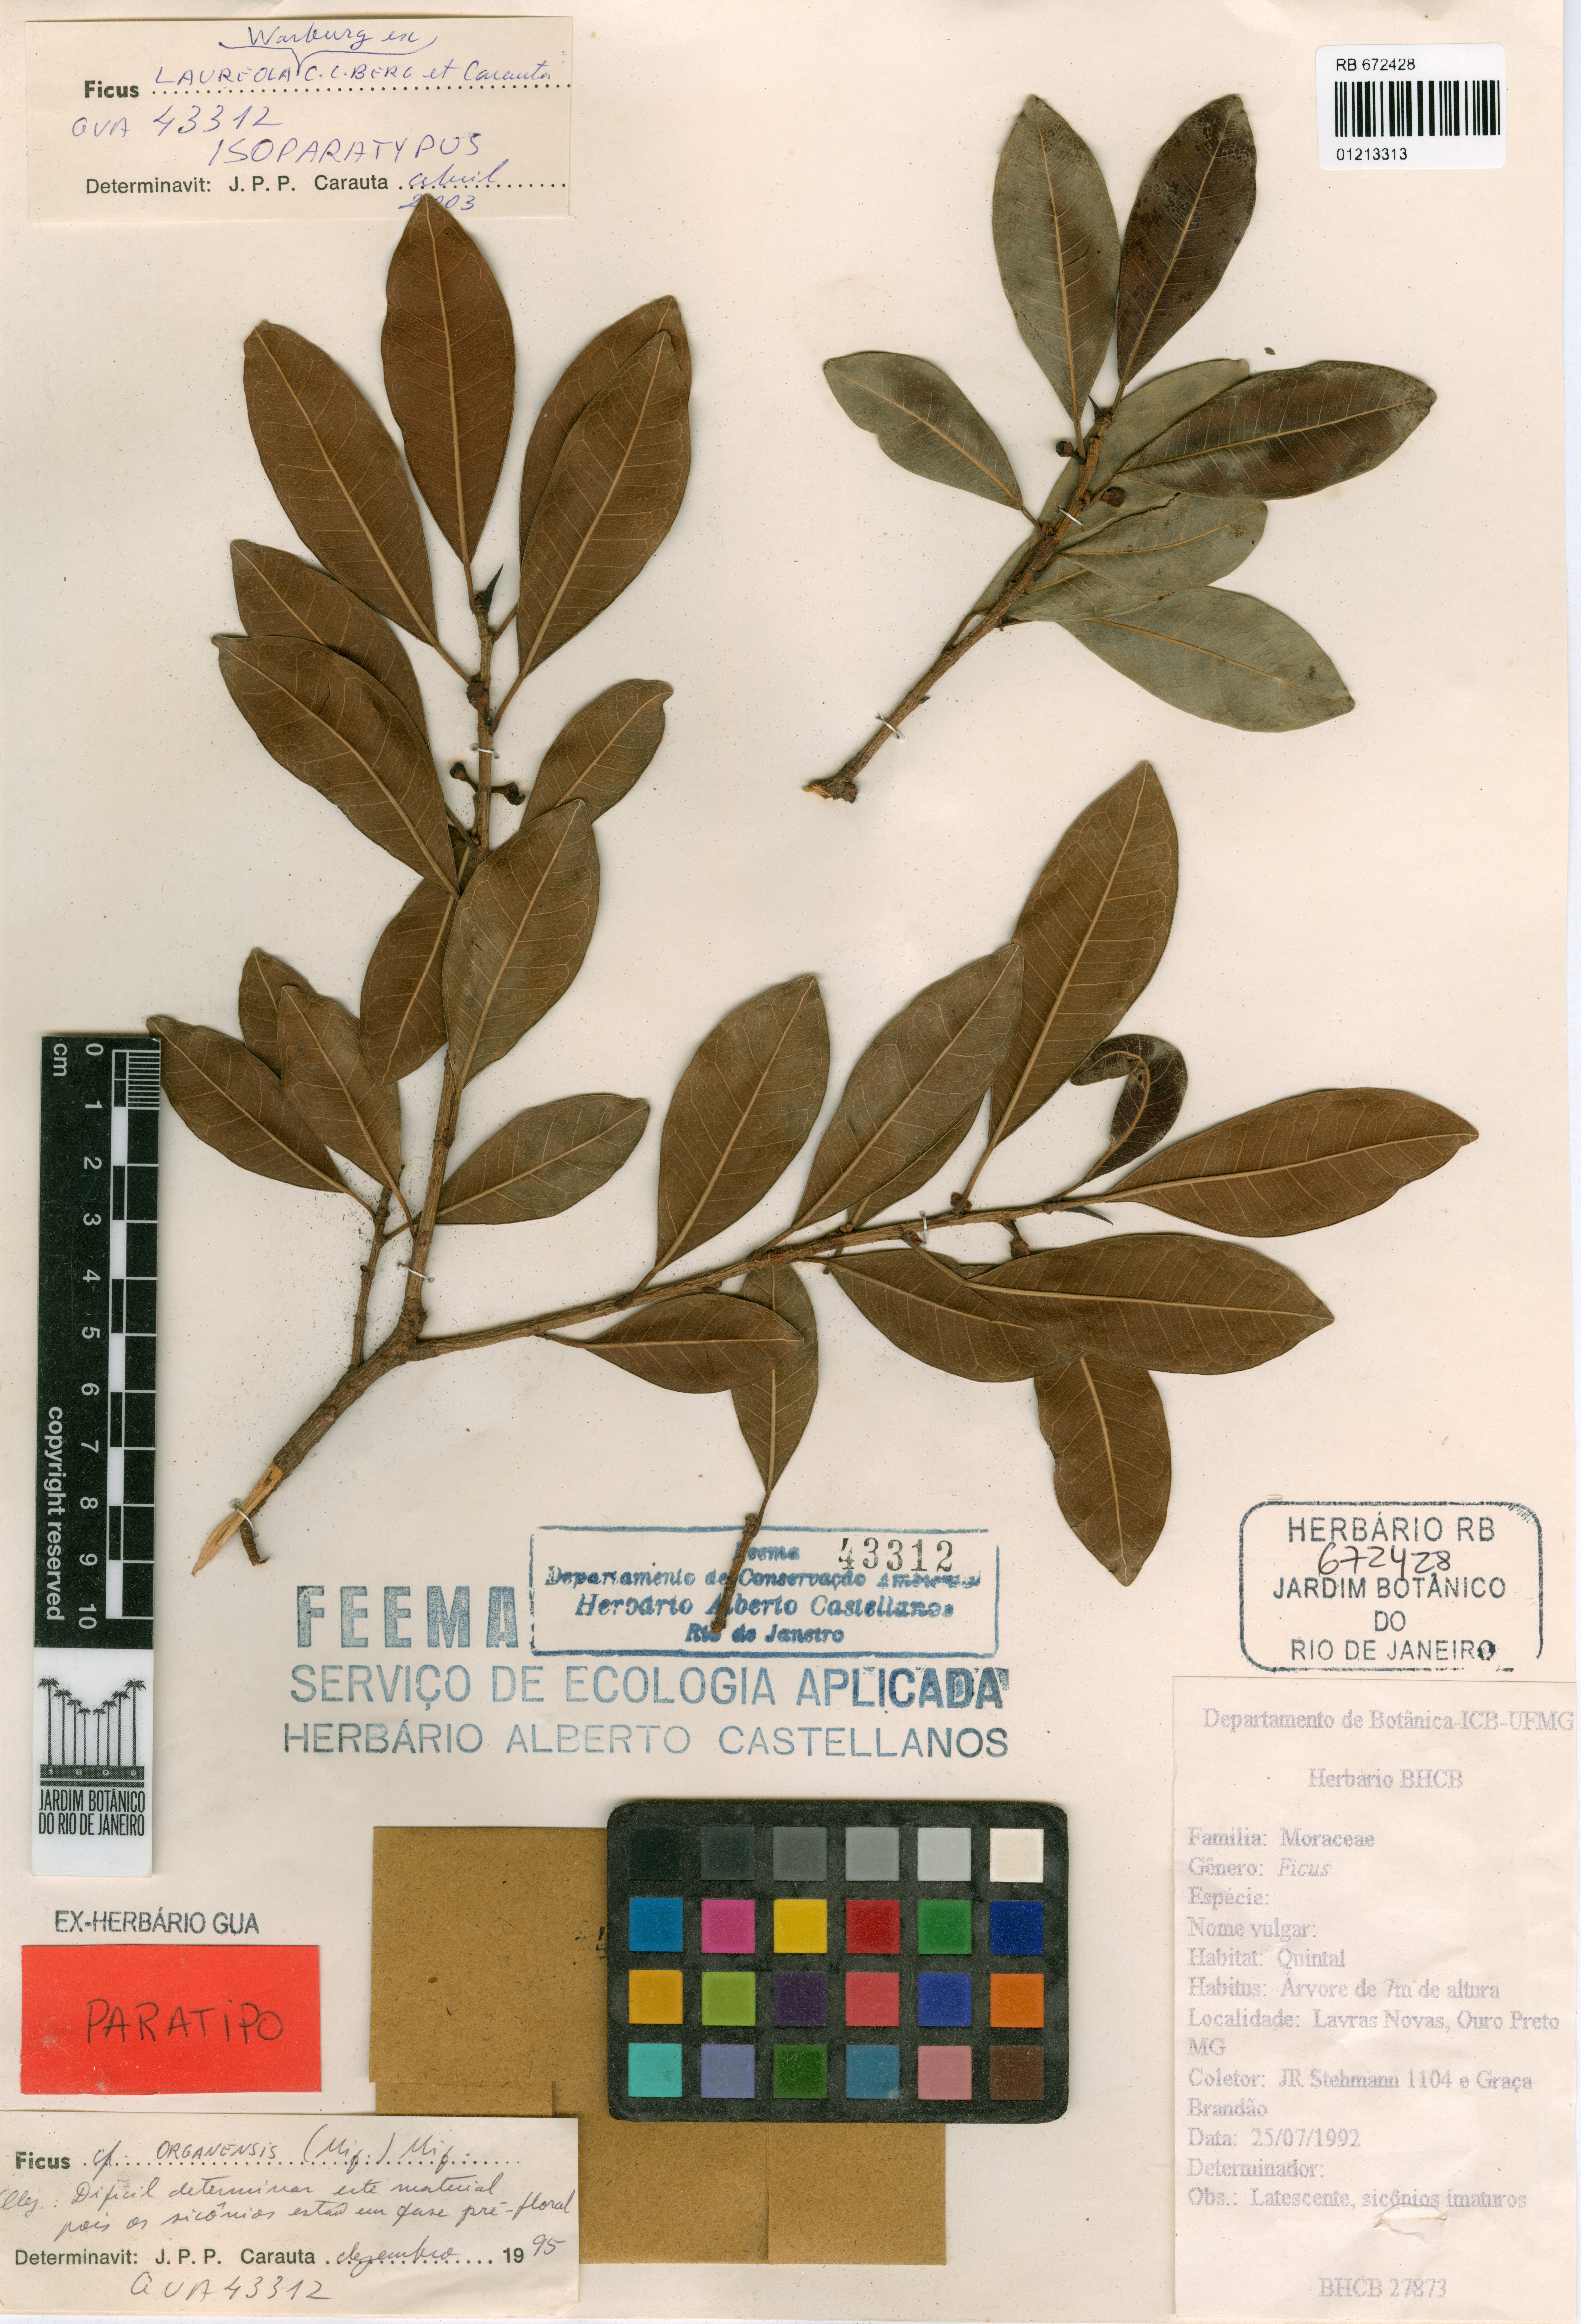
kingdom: Plantae
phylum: Tracheophyta
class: Magnoliopsida
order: Rosales
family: Moraceae
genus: Ficus
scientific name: Ficus laureola
